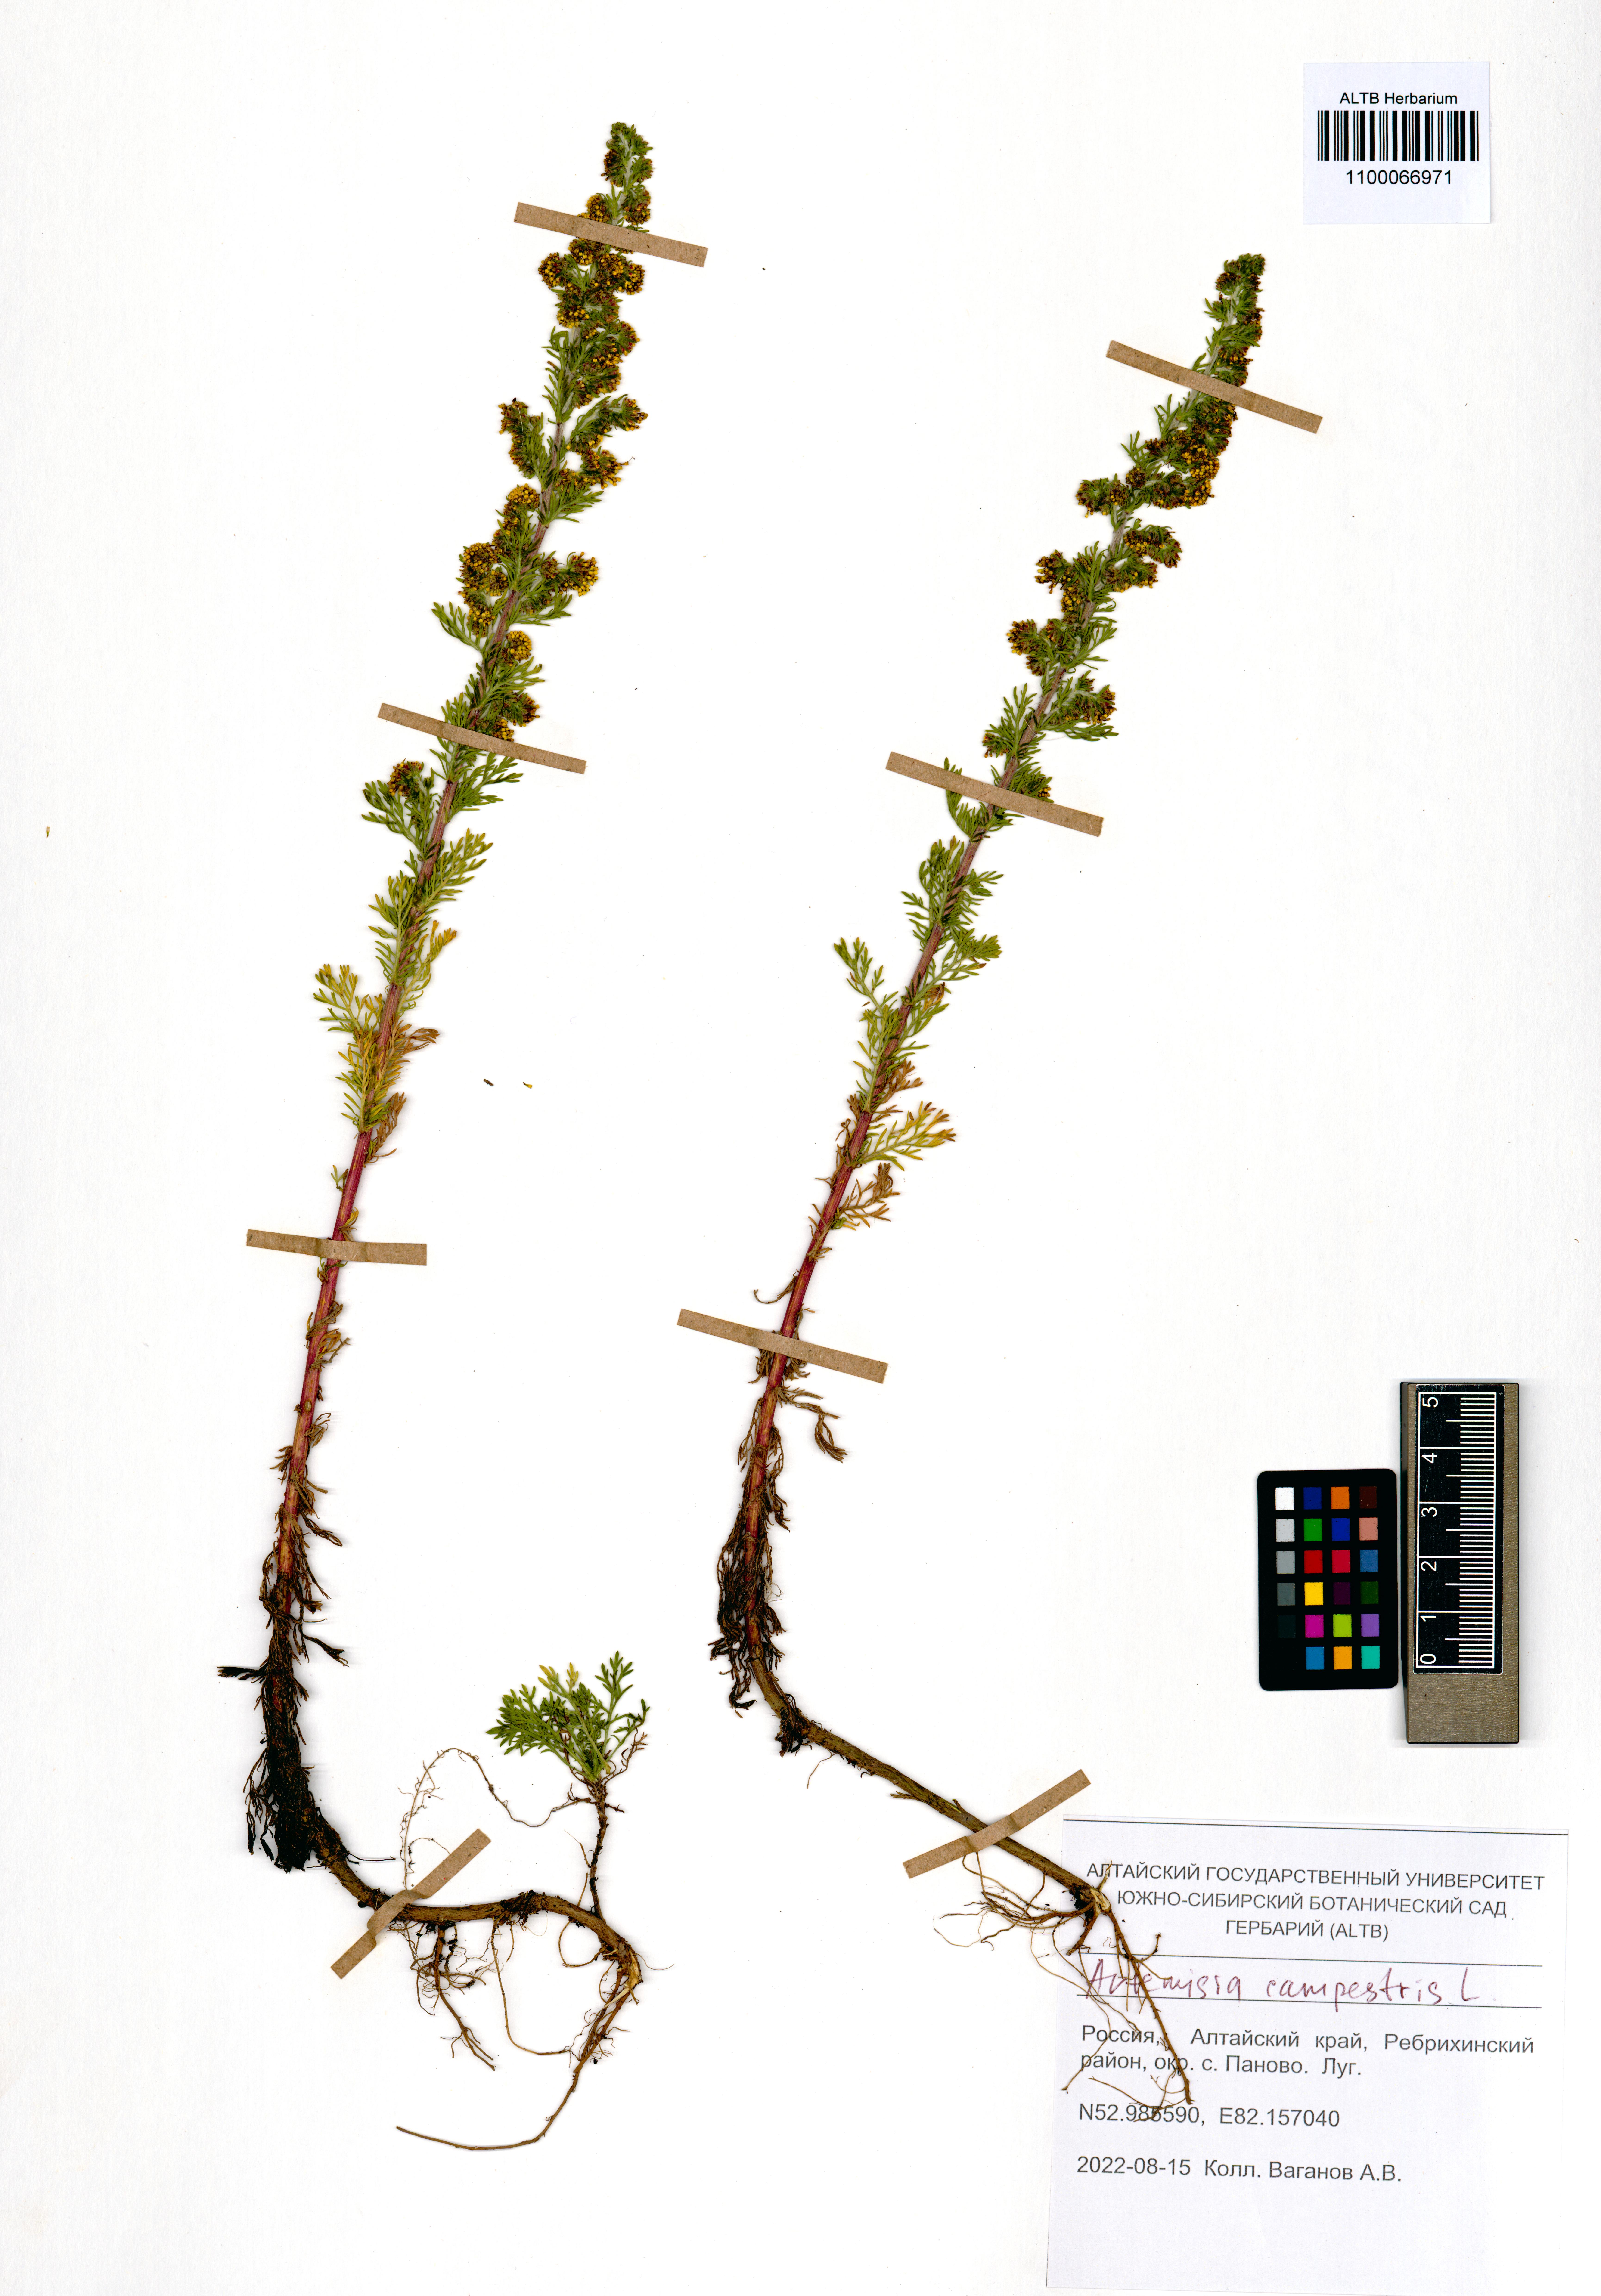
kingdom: Plantae
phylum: Tracheophyta
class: Magnoliopsida
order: Asterales
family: Asteraceae
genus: Artemisia
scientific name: Artemisia campestris
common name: Field wormwood
